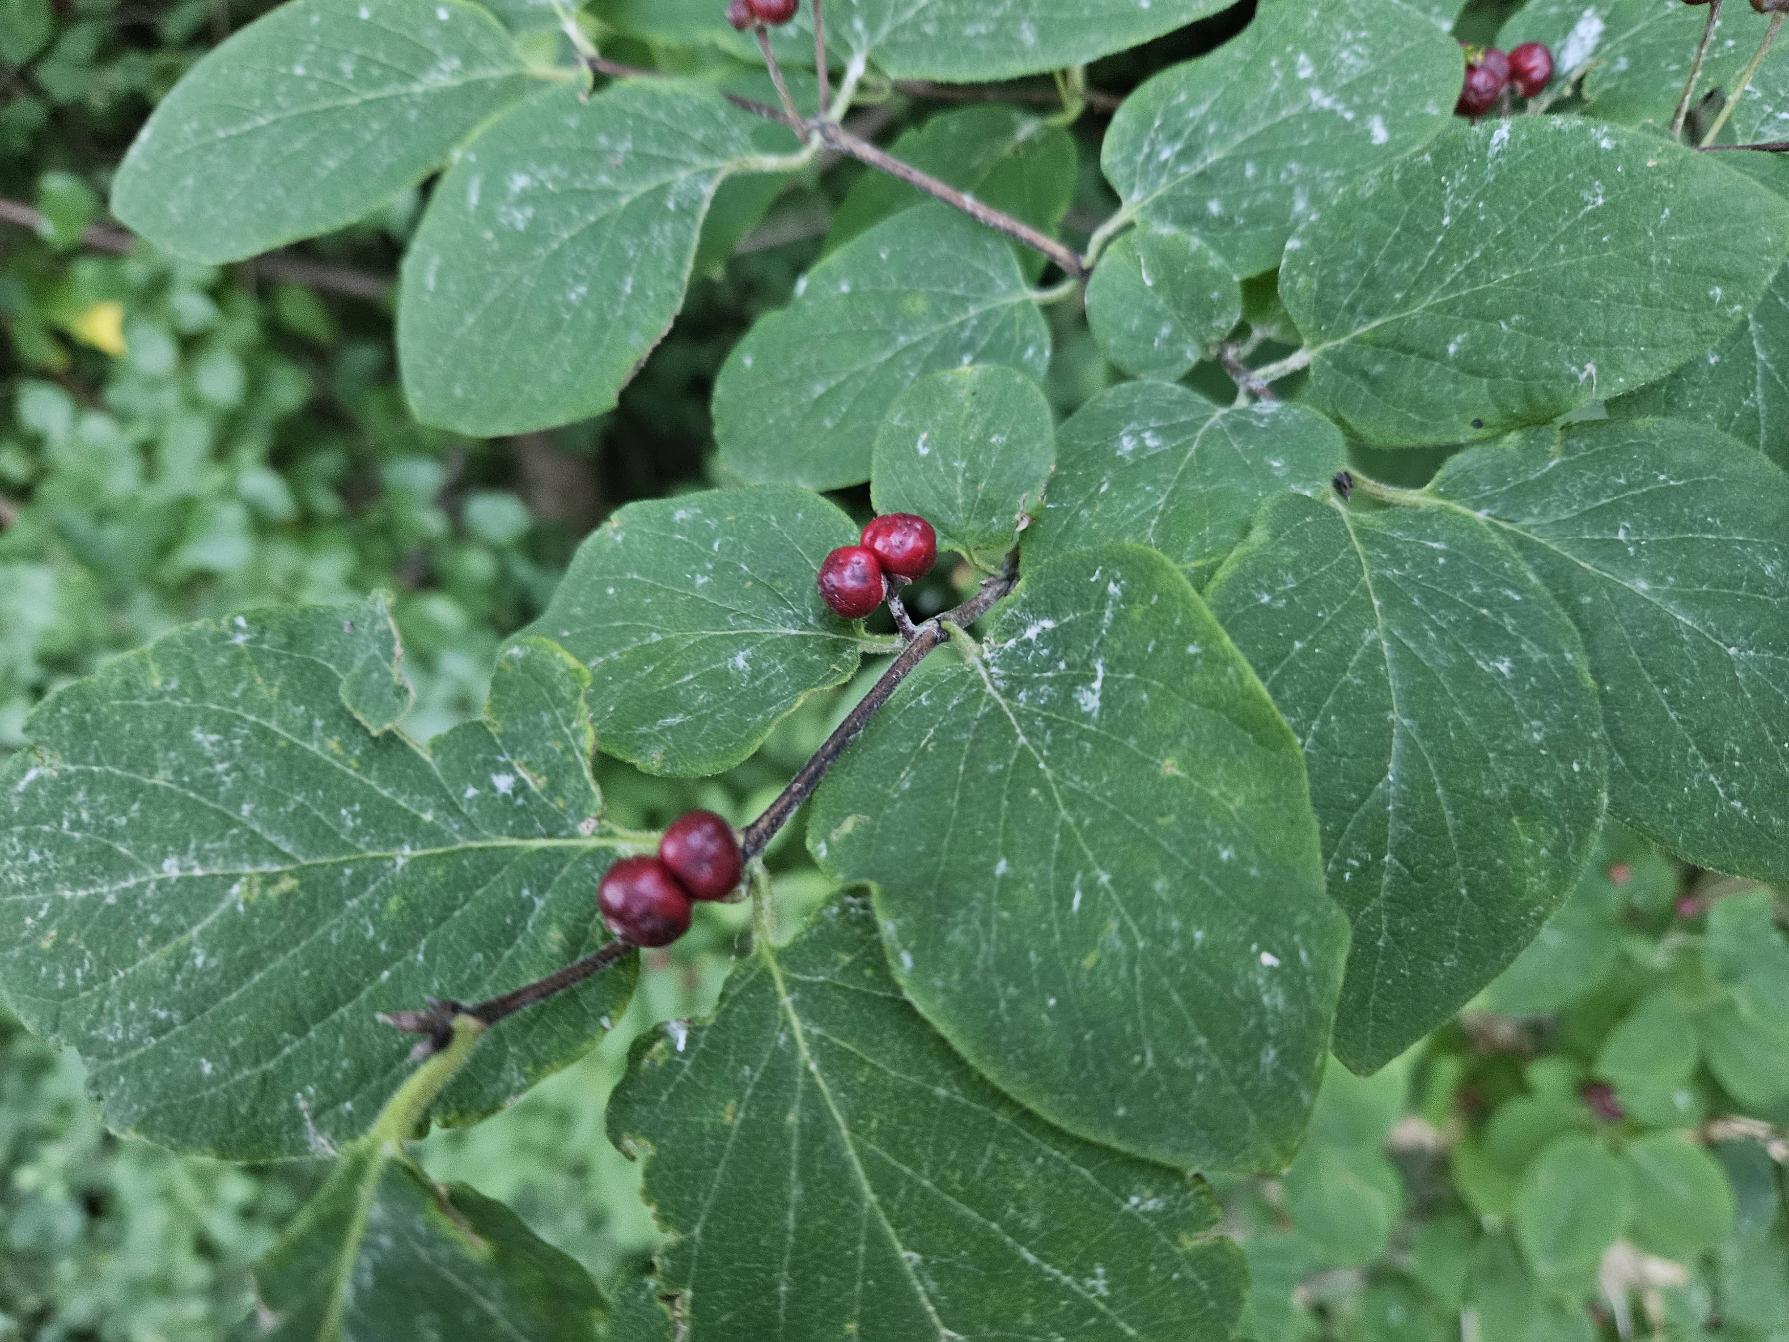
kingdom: Plantae
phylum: Tracheophyta
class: Magnoliopsida
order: Dipsacales
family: Caprifoliaceae
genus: Lonicera
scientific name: Lonicera xylosteum
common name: Dunet gedeblad
